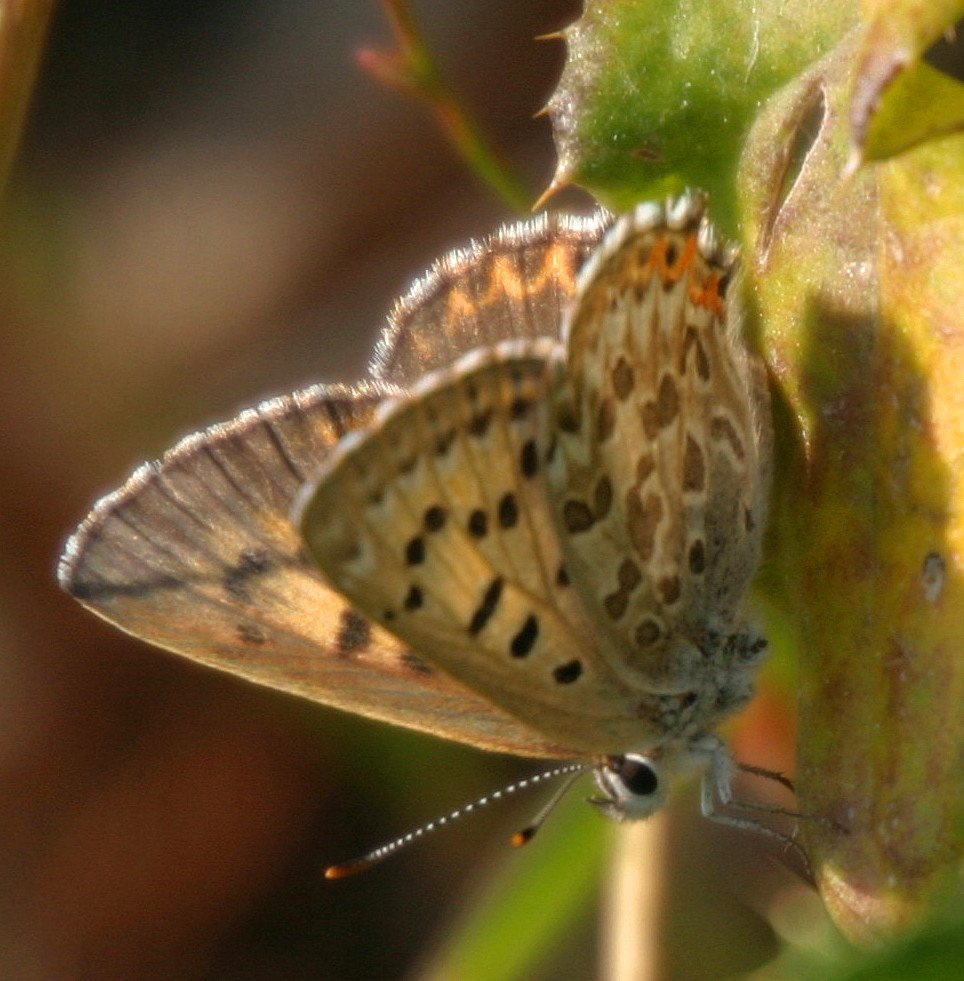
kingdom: Animalia
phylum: Arthropoda
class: Insecta
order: Lepidoptera
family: Lycaenidae
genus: Lycaena
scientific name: Lycaena editha
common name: Edith's Copper
